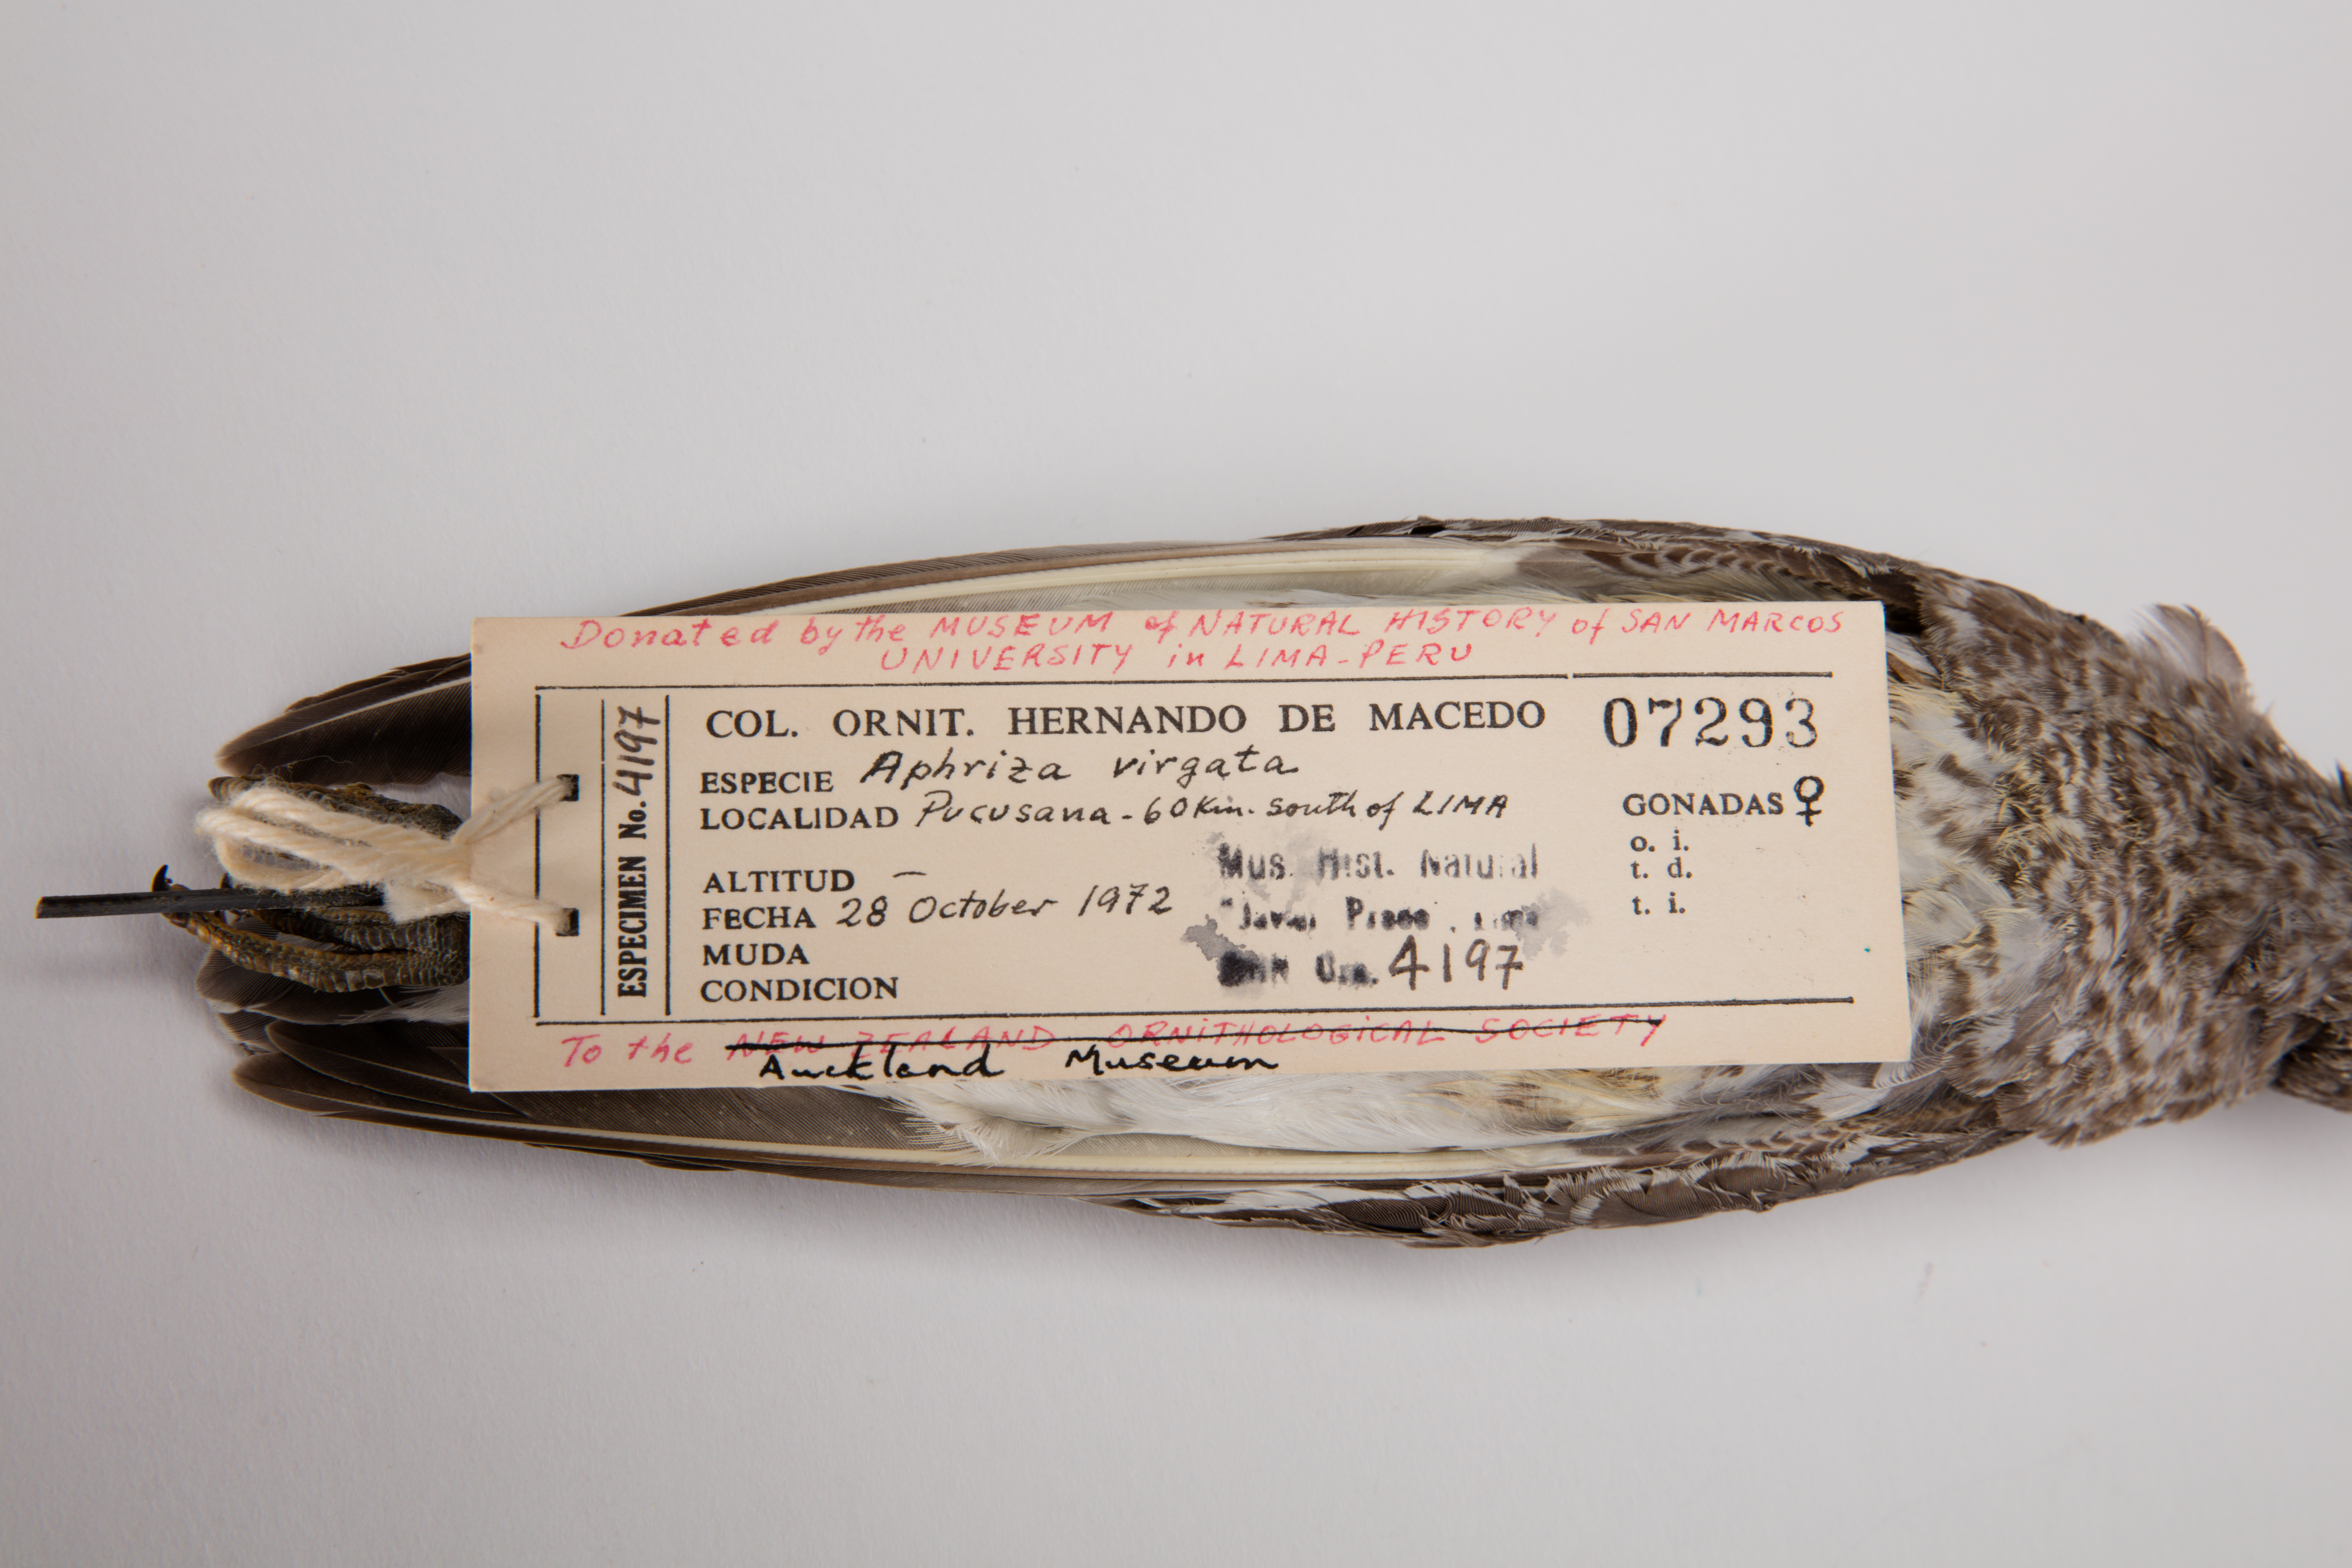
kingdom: Animalia
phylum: Chordata
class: Aves
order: Charadriiformes
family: Scolopacidae
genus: Calidris
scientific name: Calidris virgata
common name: Surfbird
